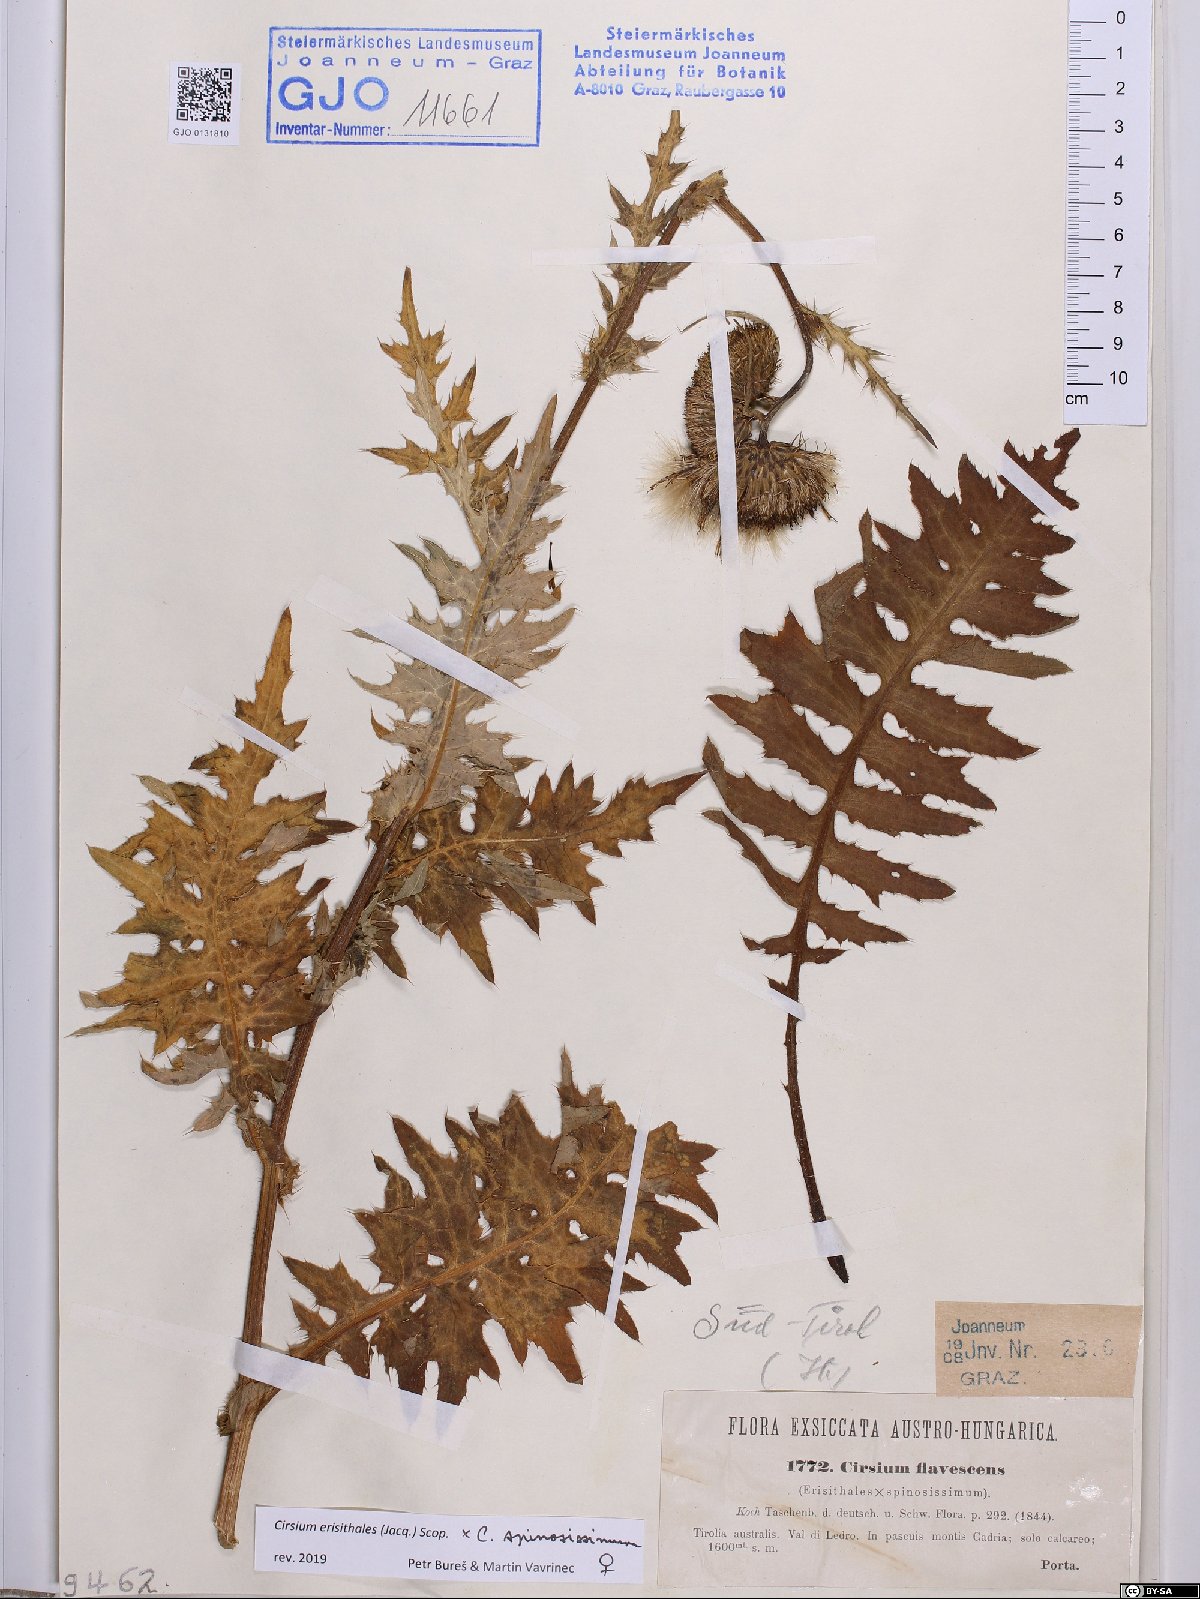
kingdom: Plantae
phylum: Tracheophyta
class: Magnoliopsida
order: Asterales
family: Asteraceae
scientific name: Asteraceae
